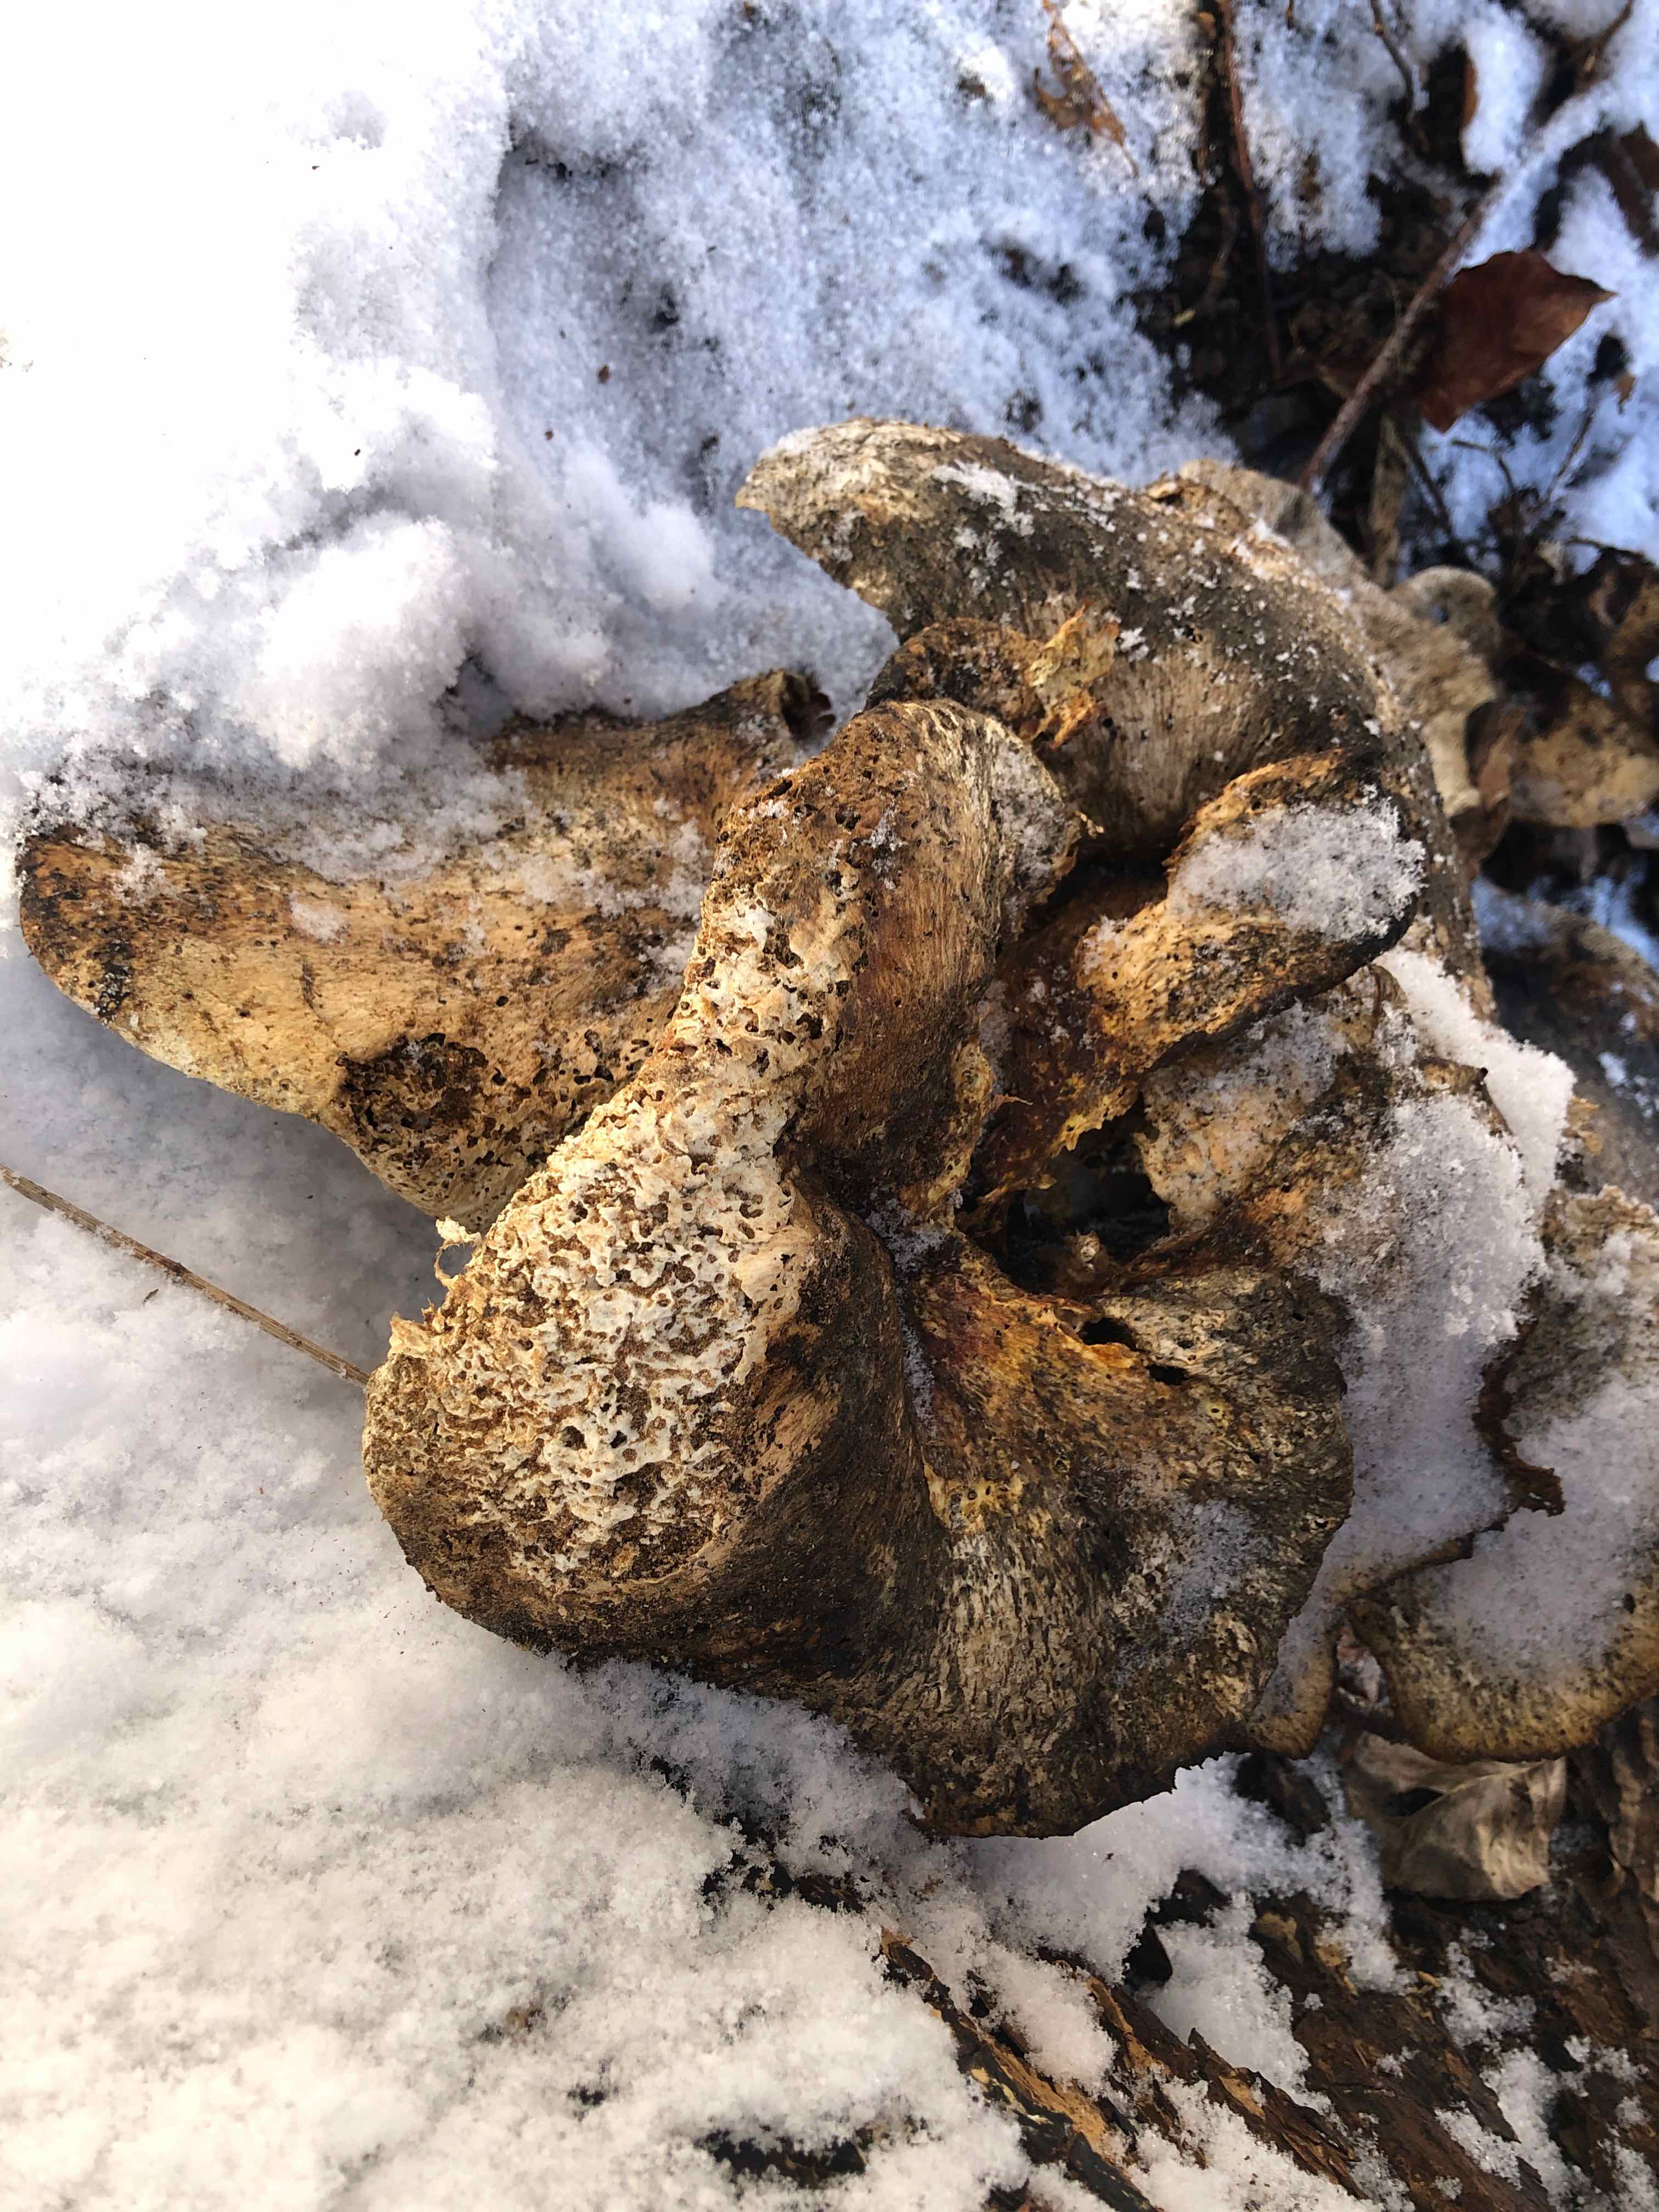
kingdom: Fungi
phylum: Basidiomycota
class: Agaricomycetes
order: Polyporales
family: Polyporaceae
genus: Cerioporus
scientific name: Cerioporus squamosus
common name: skællet stilkporesvamp
